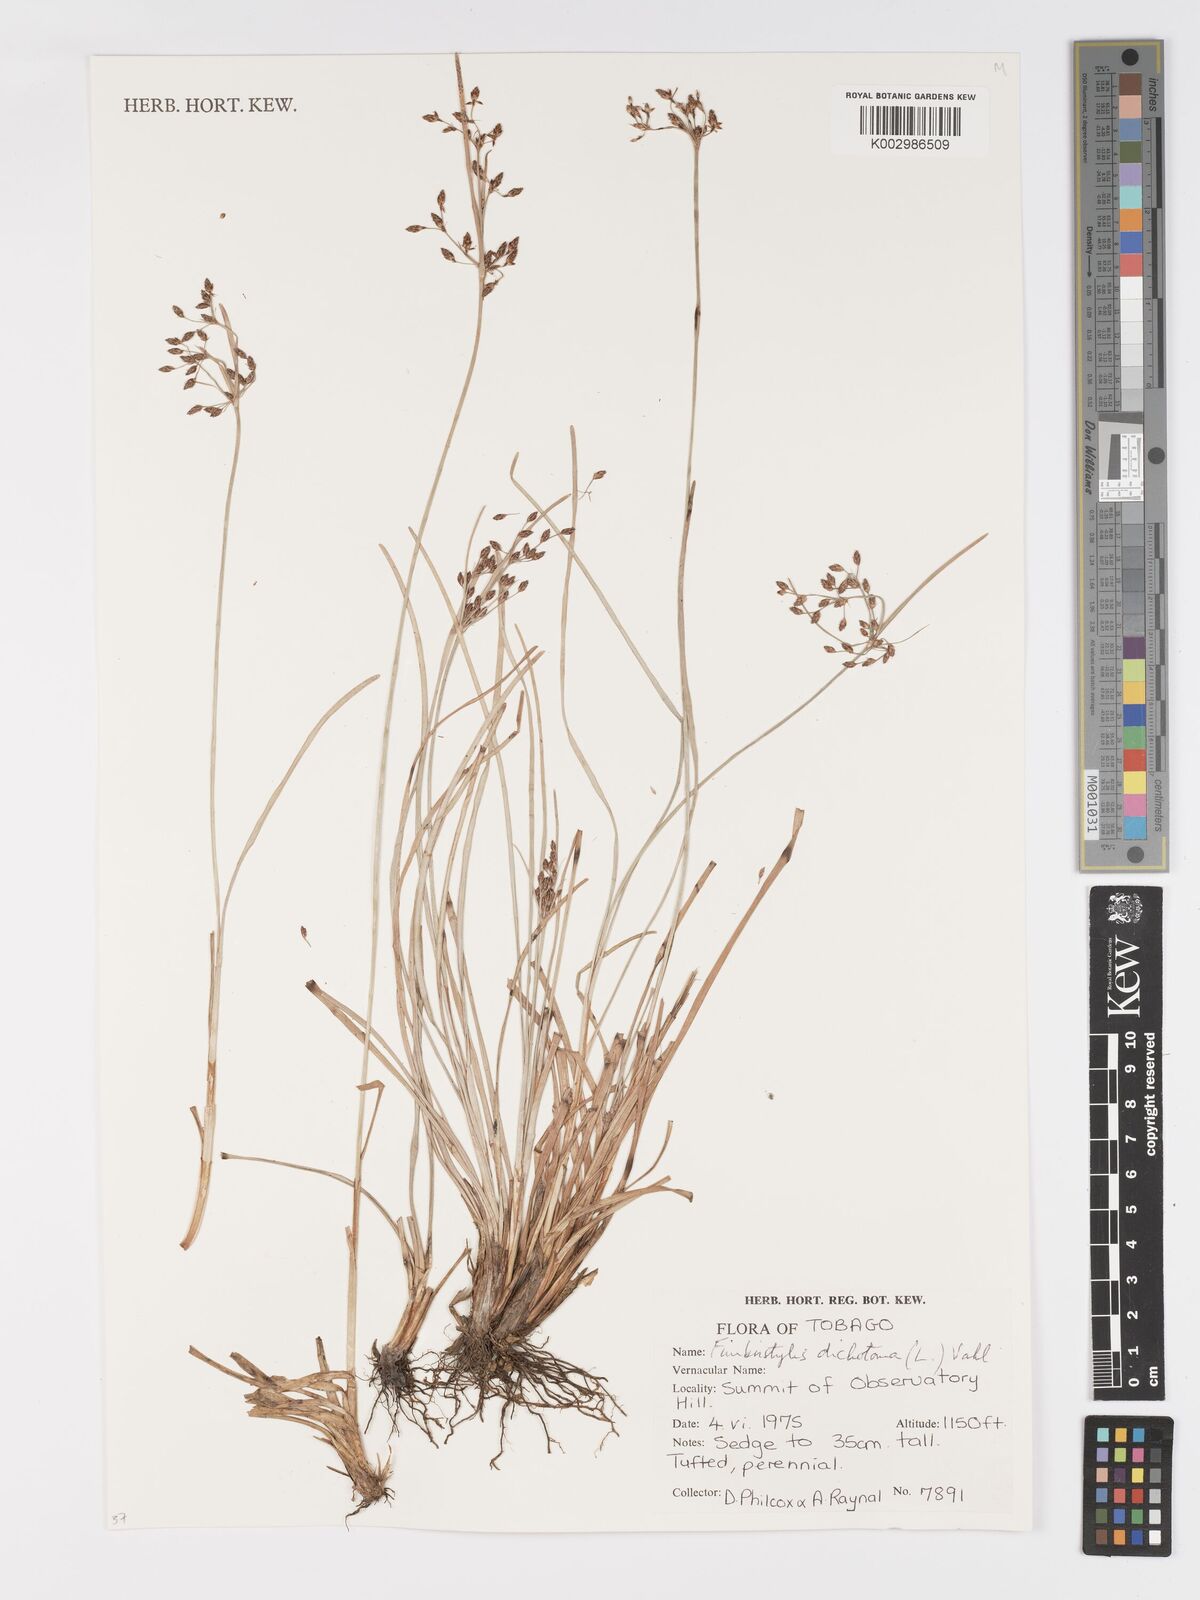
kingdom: Plantae
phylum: Tracheophyta
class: Liliopsida
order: Poales
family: Cyperaceae
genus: Fimbristylis
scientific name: Fimbristylis dichotoma
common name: Forked fimbry
